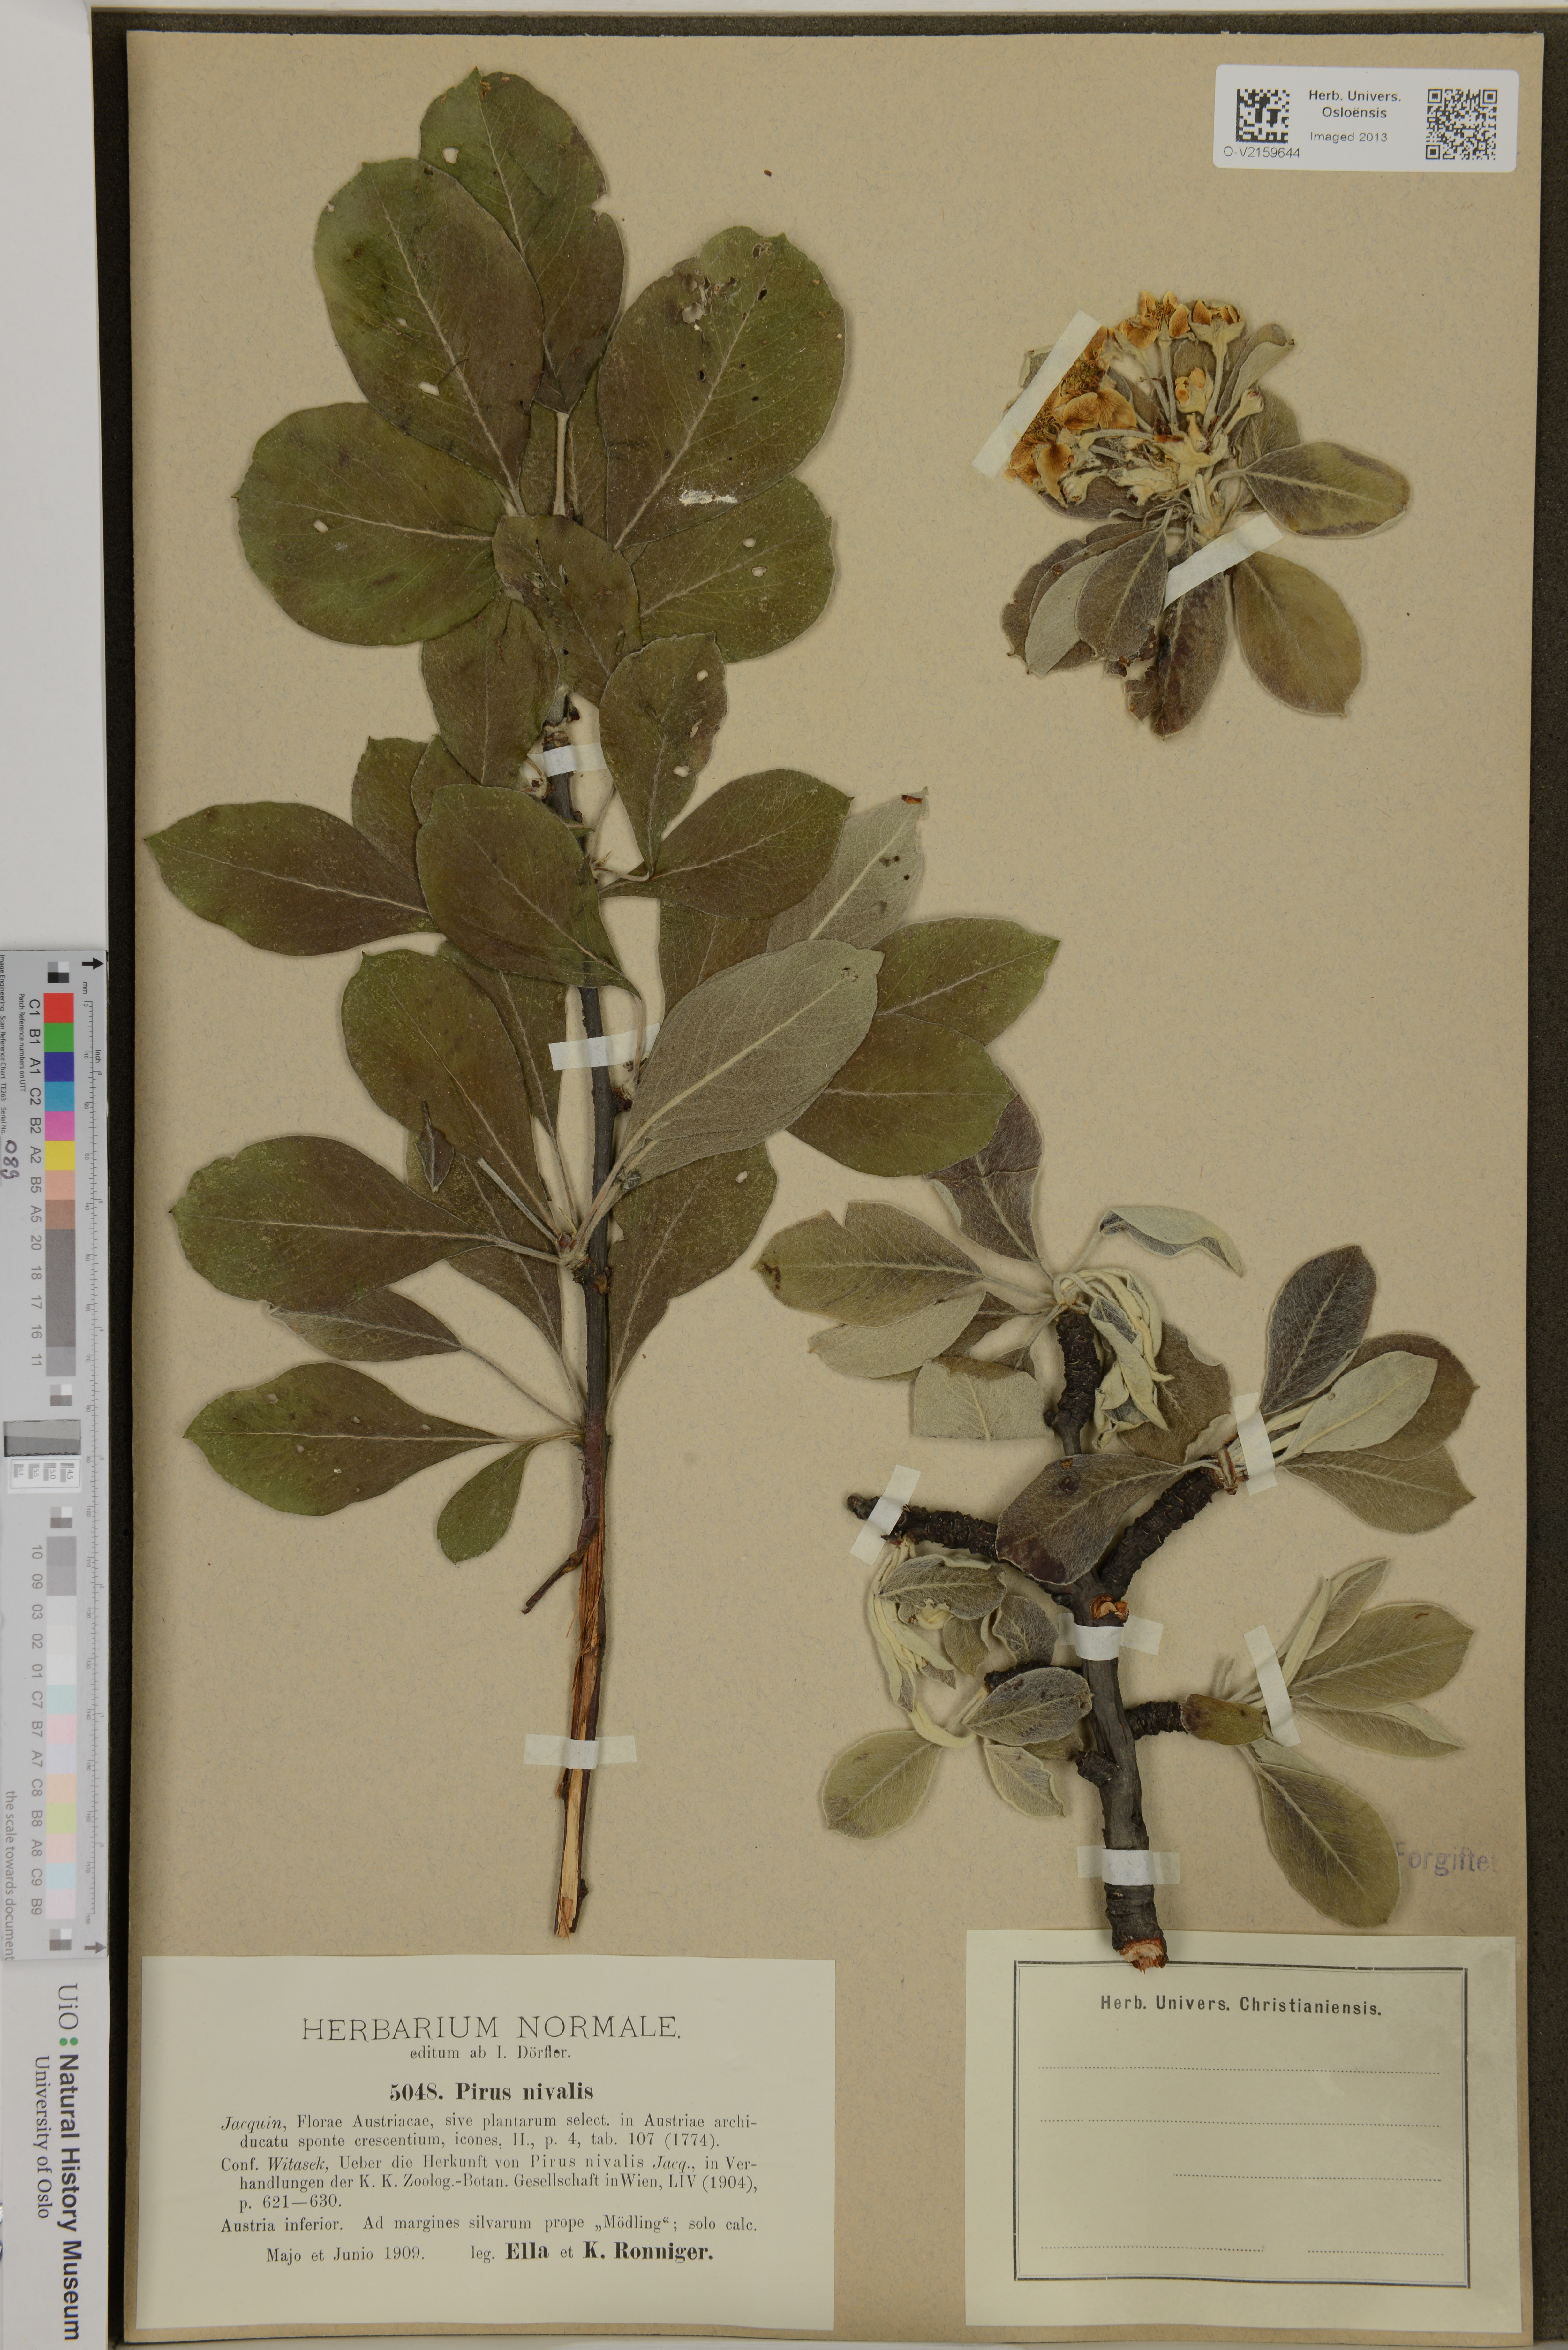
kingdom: Plantae
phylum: Tracheophyta
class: Magnoliopsida
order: Rosales
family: Rosaceae
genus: Pyrus
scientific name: Pyrus nivalis
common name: Snow pear
